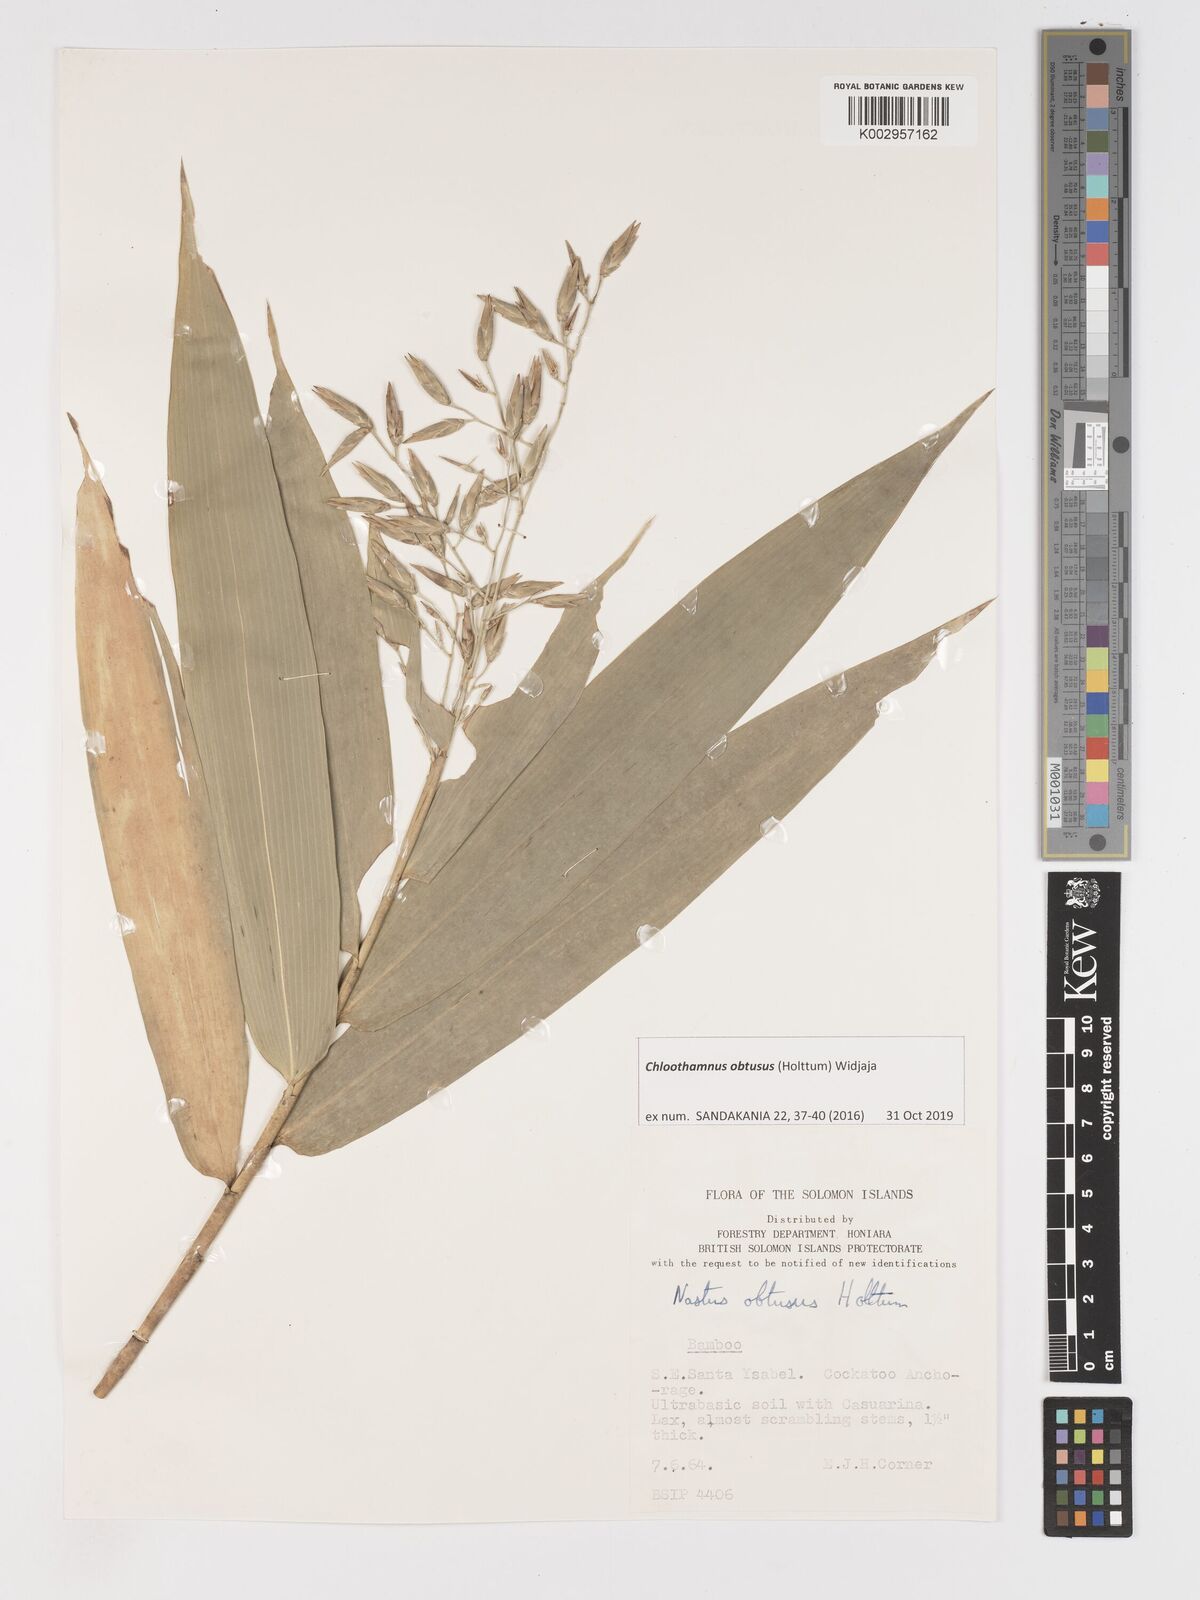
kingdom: Plantae
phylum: Tracheophyta
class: Liliopsida
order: Poales
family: Poaceae
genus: Chloothamnus
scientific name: Chloothamnus obtusus
